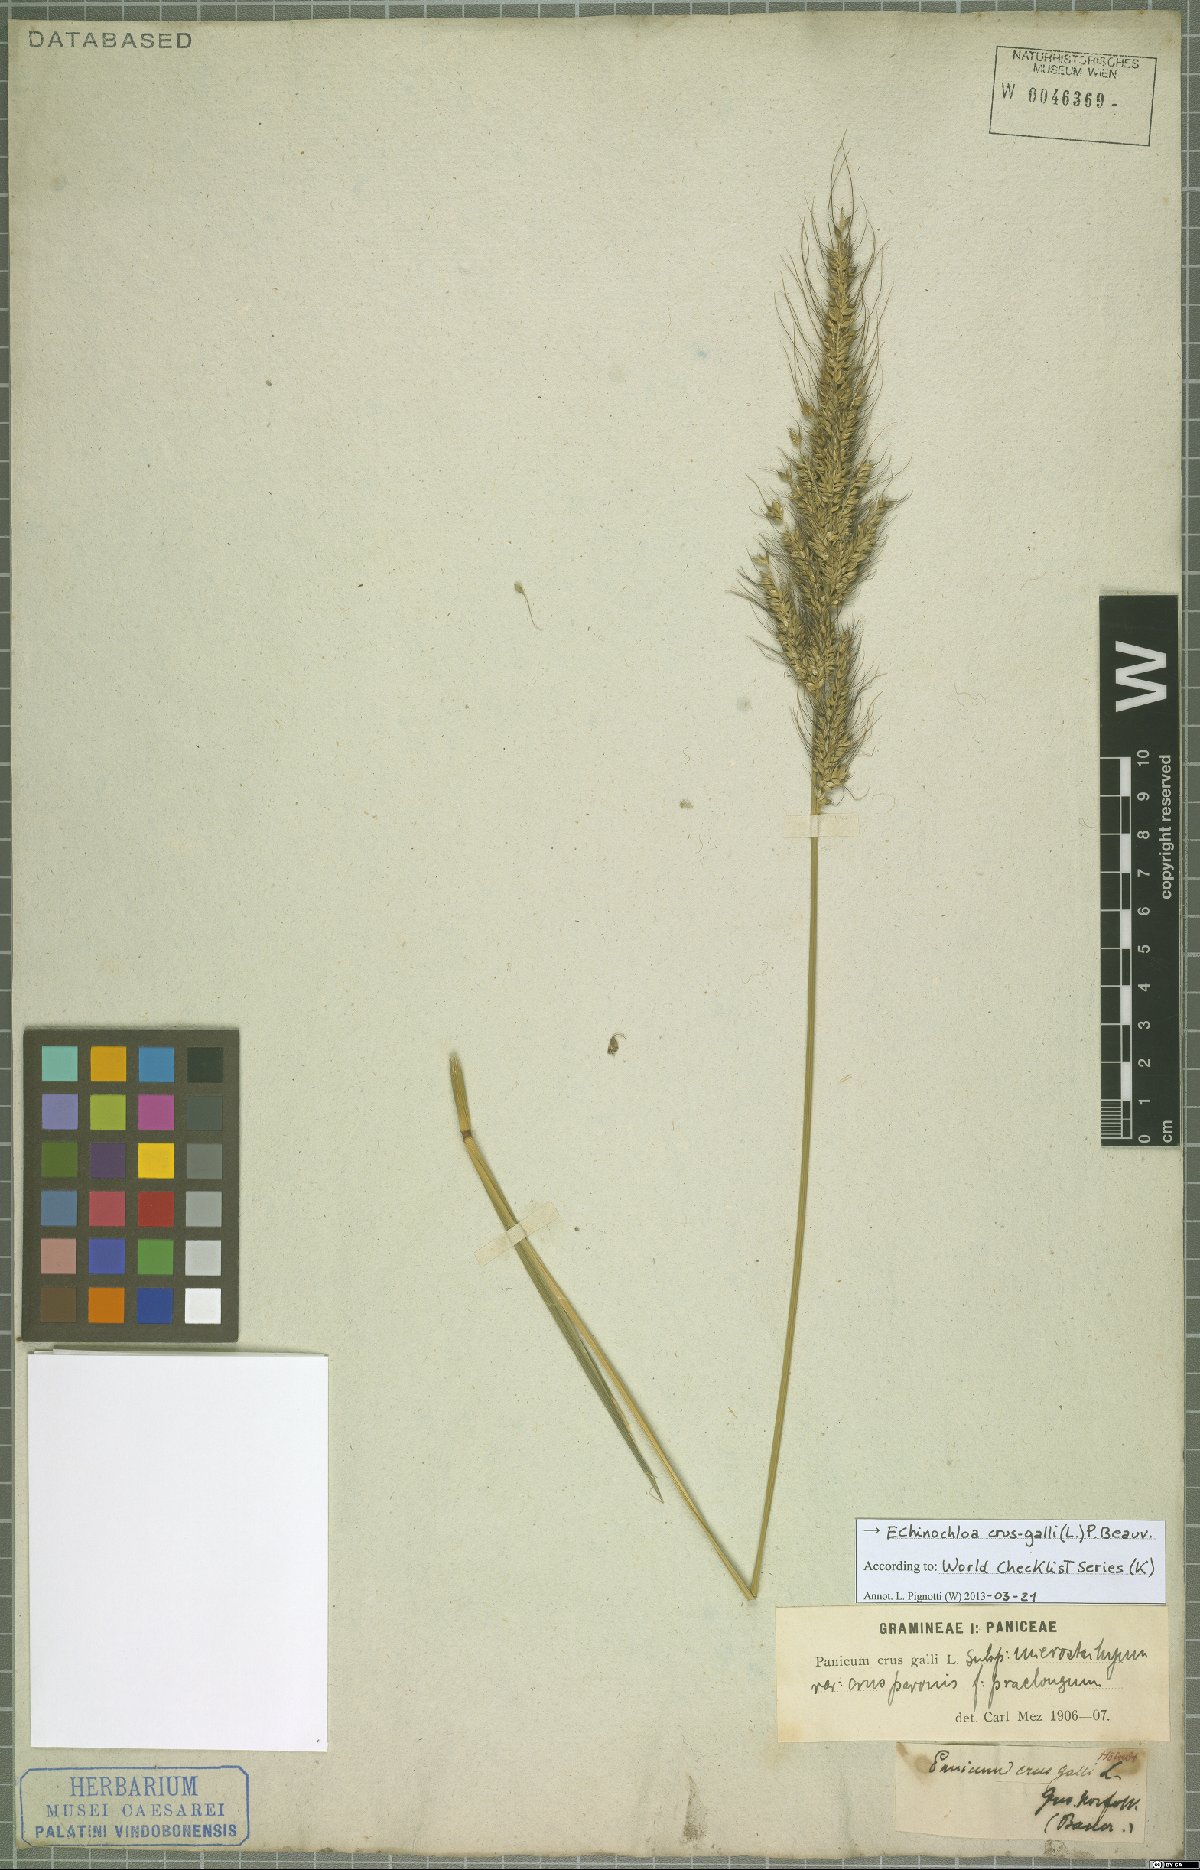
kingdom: Plantae
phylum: Tracheophyta
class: Liliopsida
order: Poales
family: Poaceae
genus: Echinochloa
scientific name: Echinochloa crus-galli
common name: Cockspur
